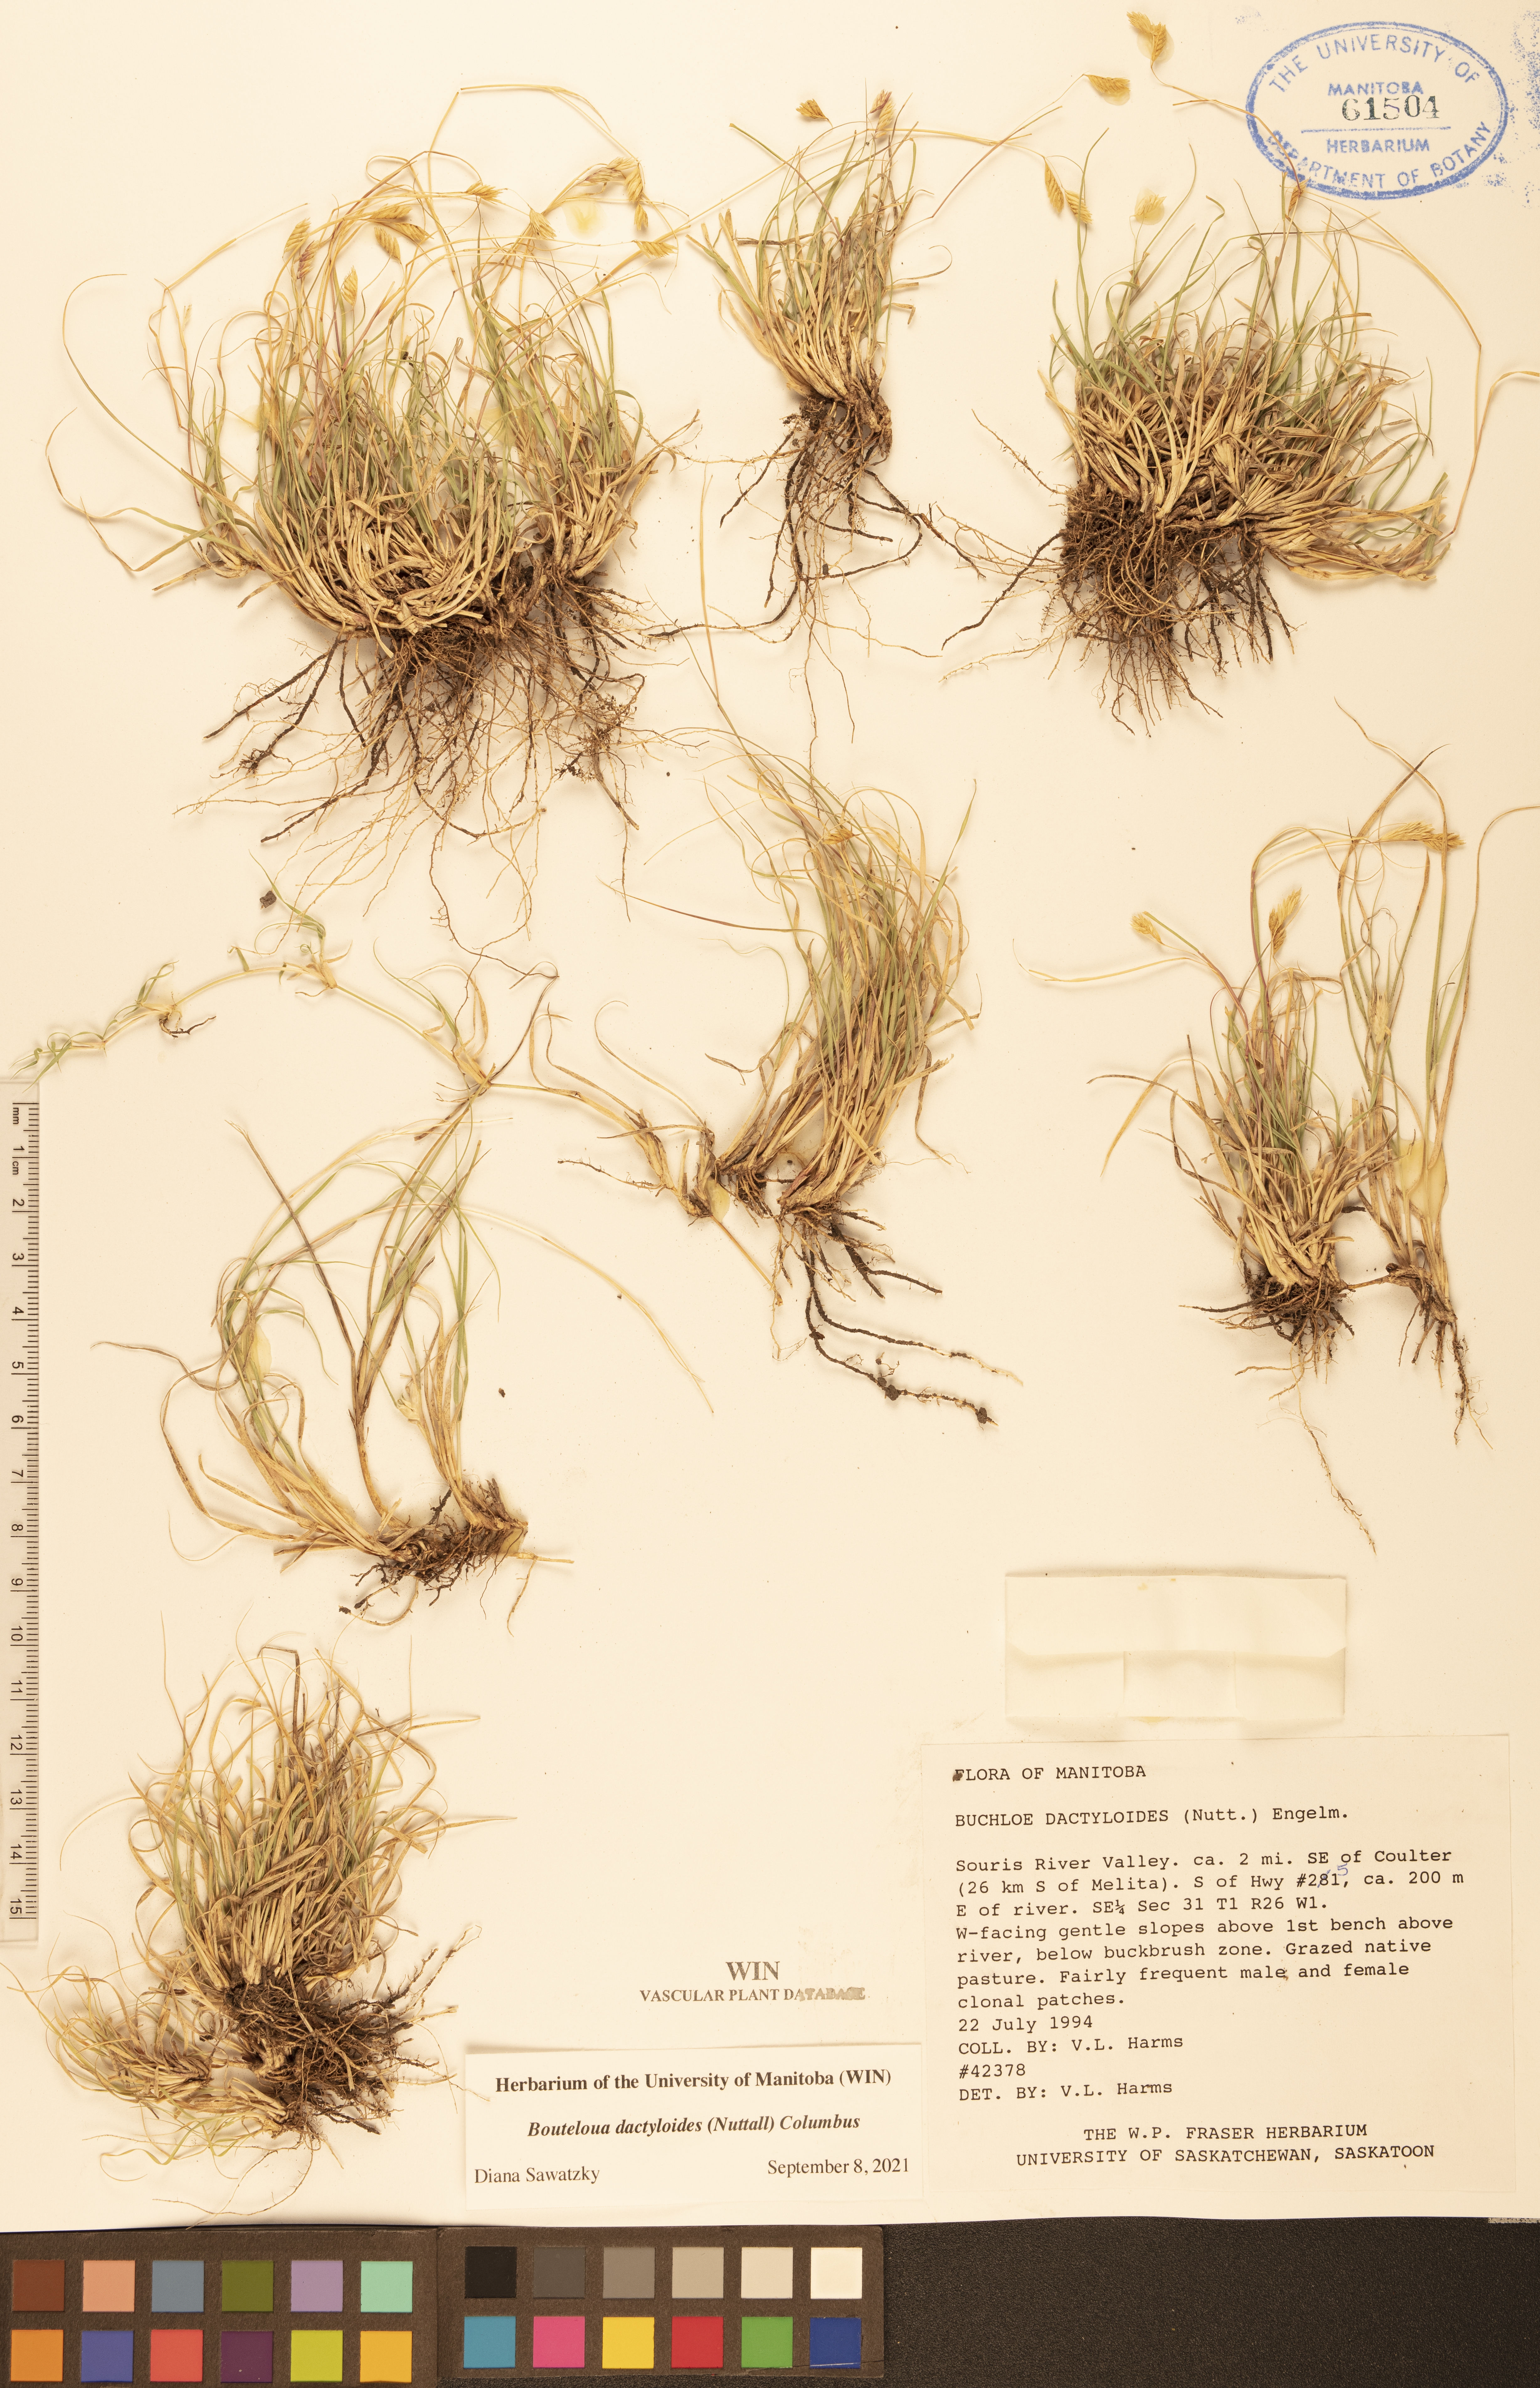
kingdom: Plantae
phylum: Tracheophyta
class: Liliopsida
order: Poales
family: Poaceae
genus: Bouteloua
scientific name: Bouteloua dactyloides
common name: Buffalo grass
